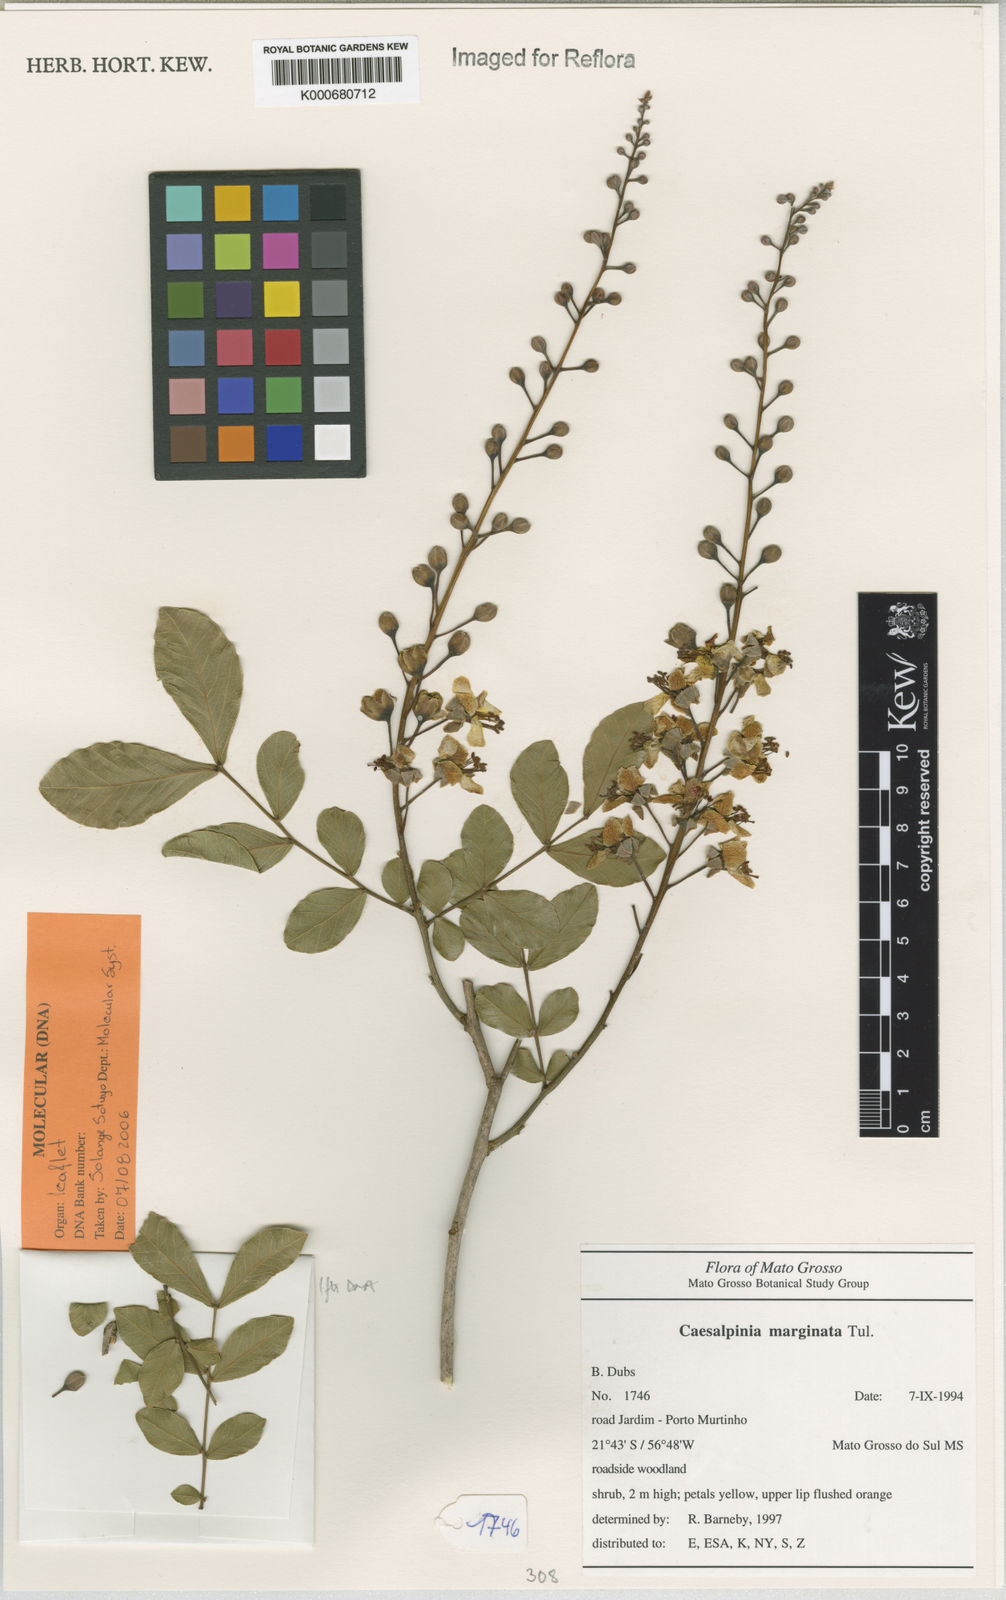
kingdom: Plantae
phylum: Tracheophyta
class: Magnoliopsida
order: Fabales
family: Fabaceae
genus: Cenostigma
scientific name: Cenostigma marginatum
